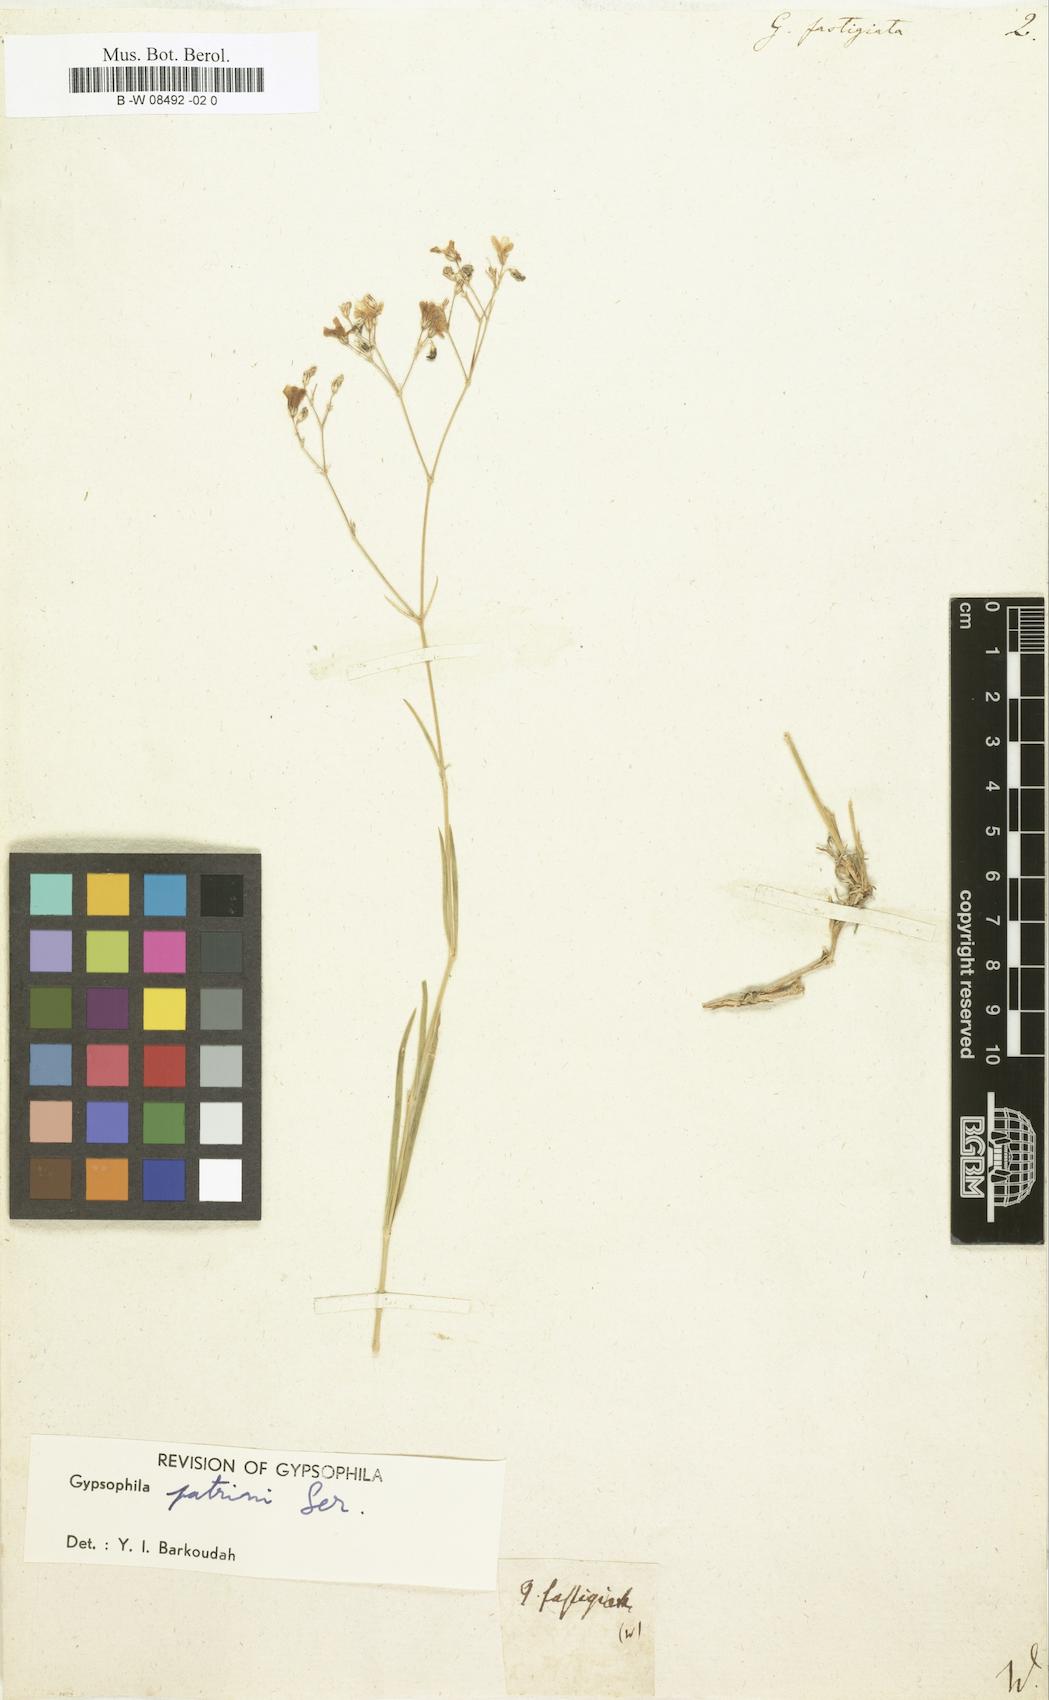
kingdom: Plantae
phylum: Tracheophyta
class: Magnoliopsida
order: Caryophyllales
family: Caryophyllaceae
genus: Gypsophila
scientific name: Gypsophila fastigiata
